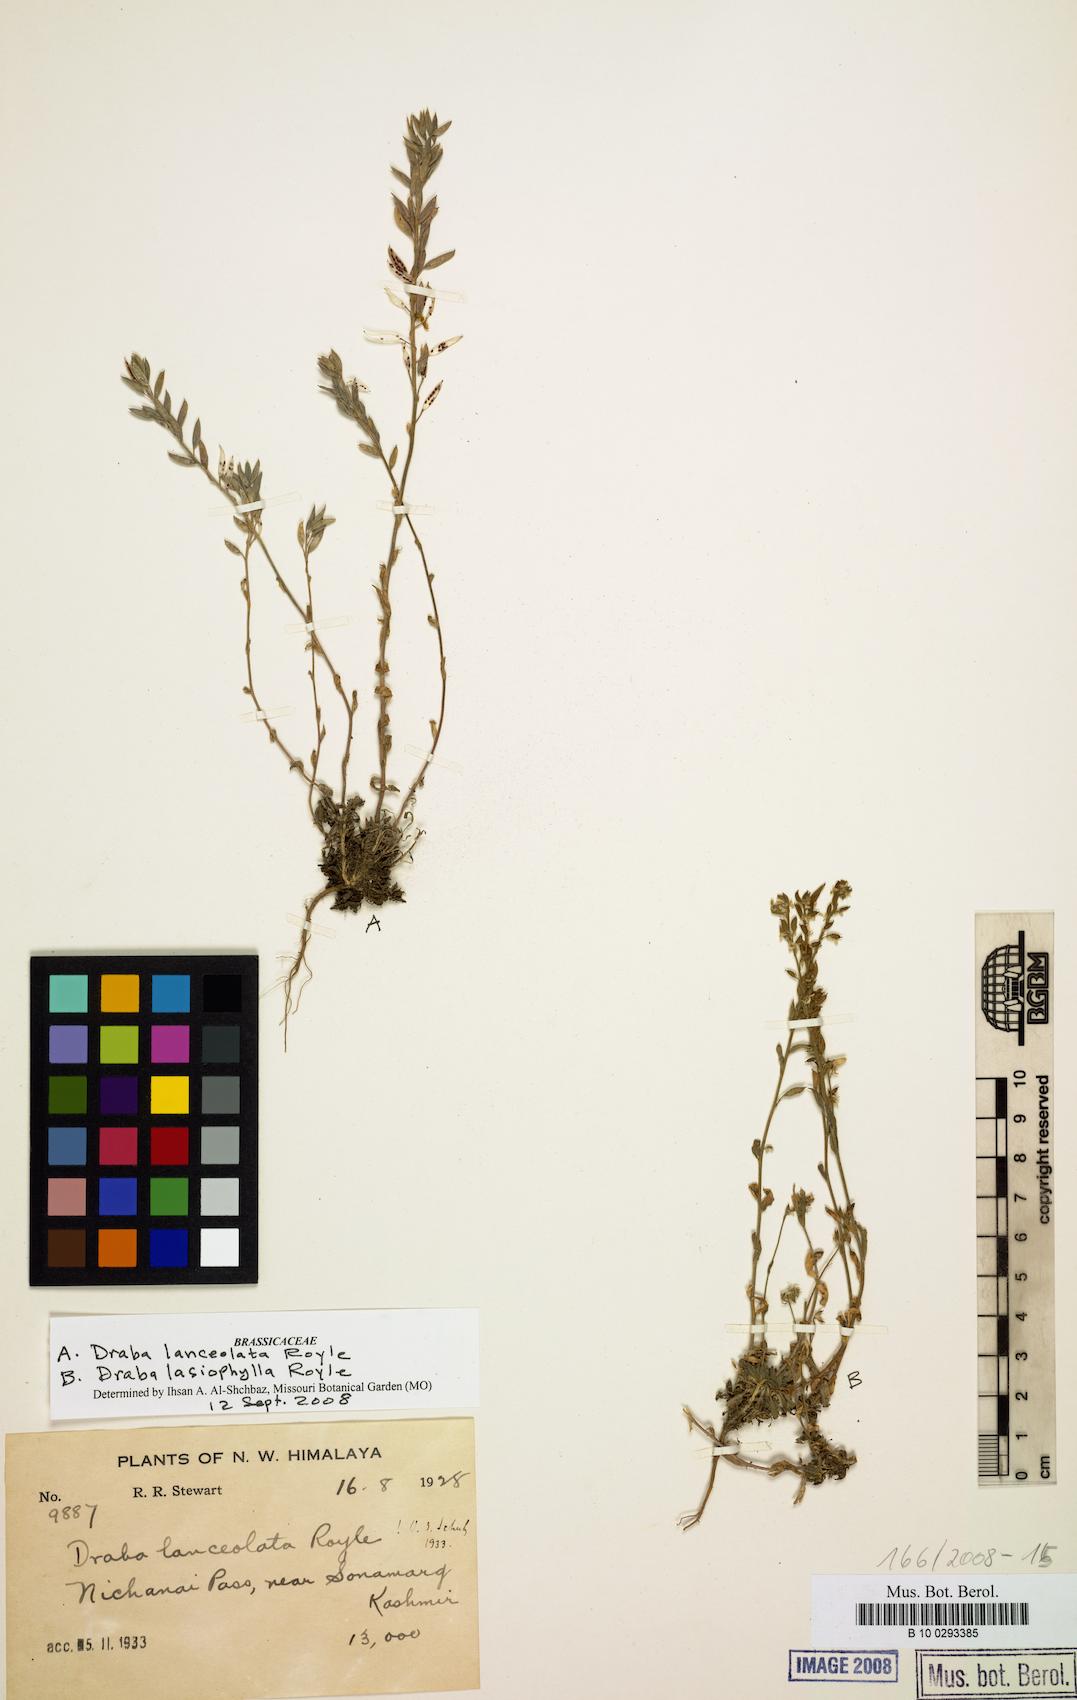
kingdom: Plantae
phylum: Tracheophyta
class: Magnoliopsida
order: Brassicales
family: Brassicaceae
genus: Draba
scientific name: Draba lanceolata
